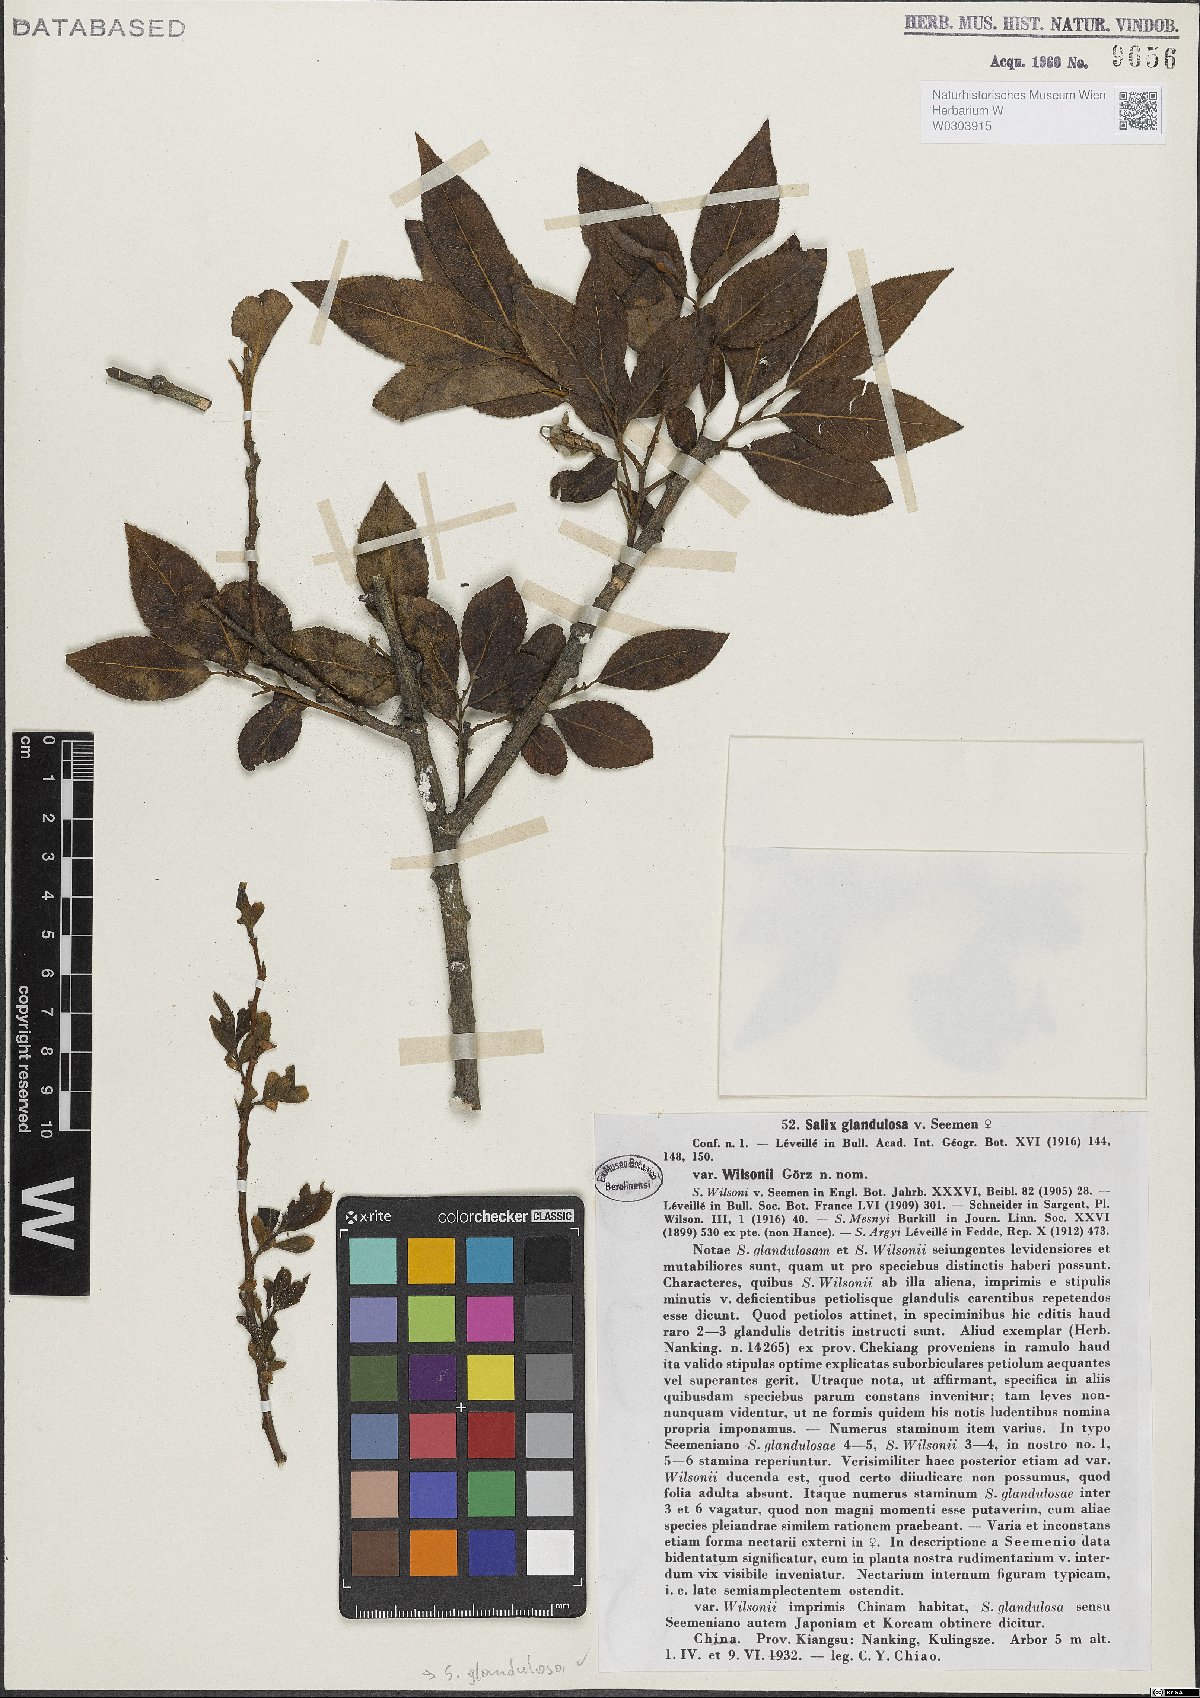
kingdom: Plantae
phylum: Tracheophyta
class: Magnoliopsida
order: Malpighiales
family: Salicaceae
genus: Salix
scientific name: Salix chaenomeloides
